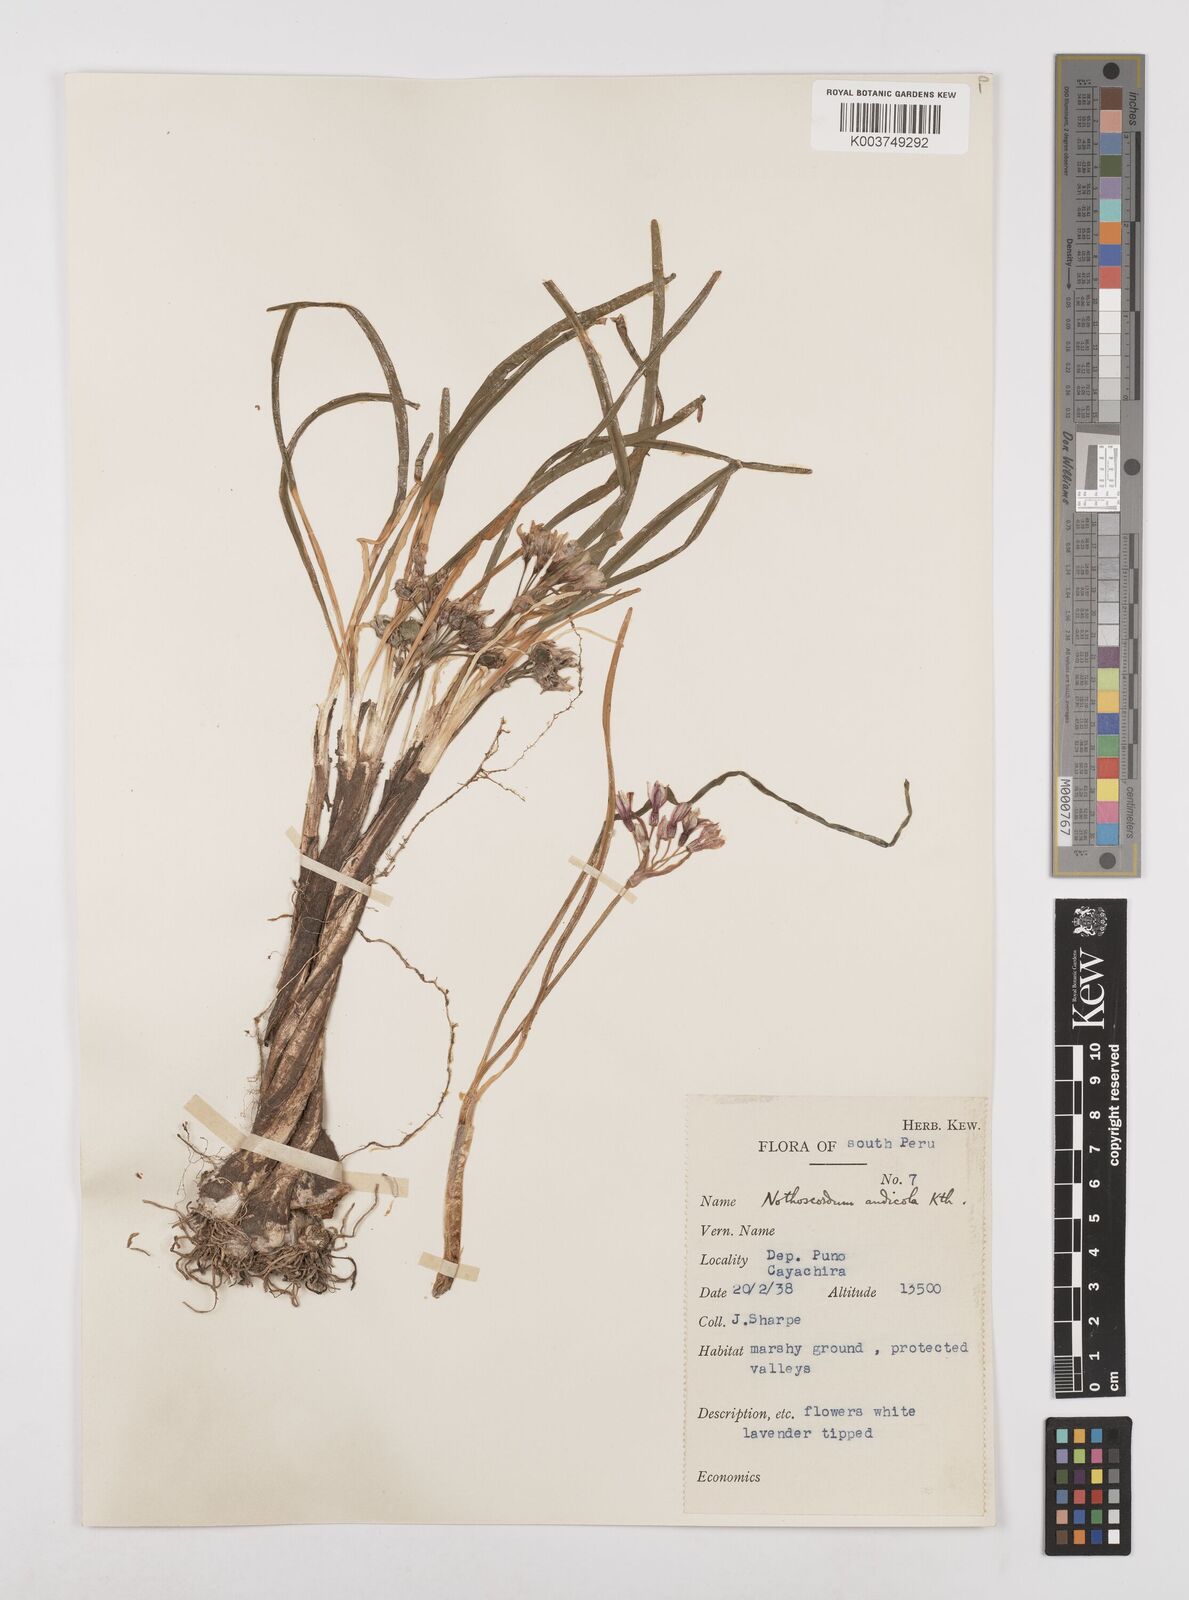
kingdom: Plantae
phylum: Tracheophyta
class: Liliopsida
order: Asparagales
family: Amaryllidaceae
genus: Nothoscordum
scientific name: Nothoscordum andicola
